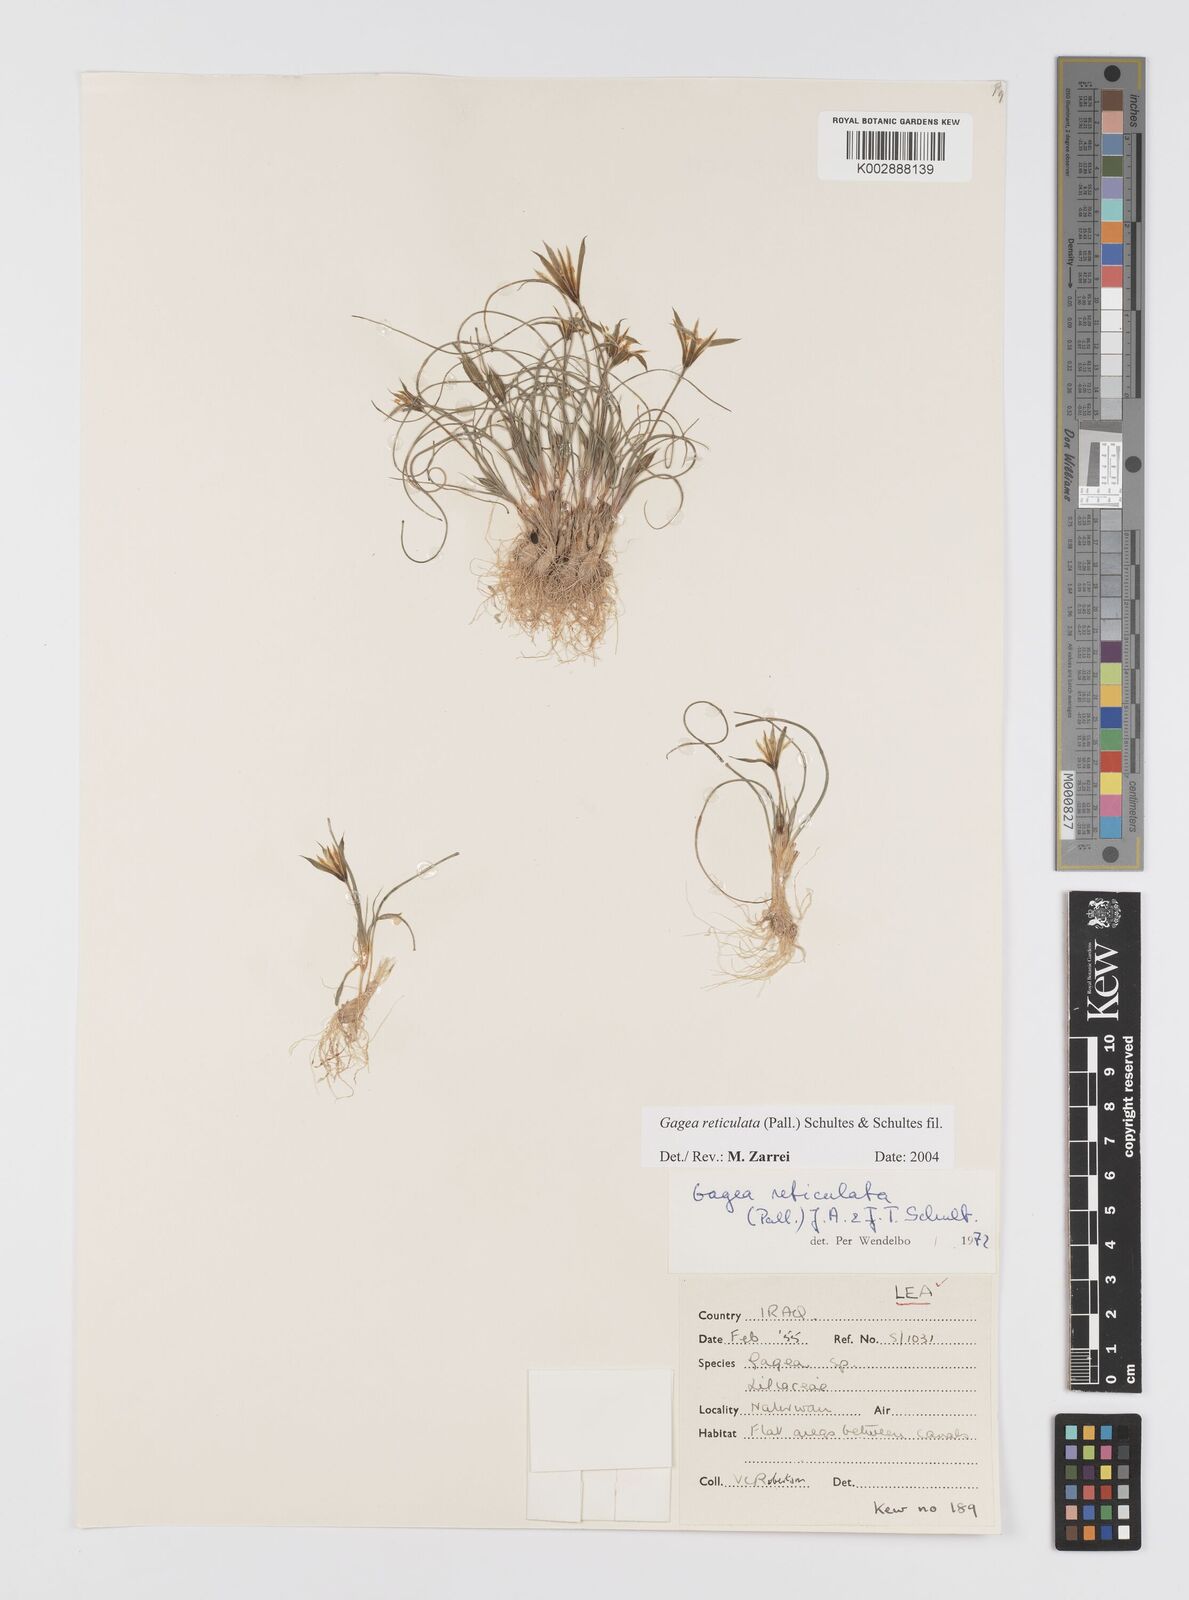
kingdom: Plantae
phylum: Tracheophyta
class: Liliopsida
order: Liliales
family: Liliaceae
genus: Gagea
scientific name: Gagea reticulata
